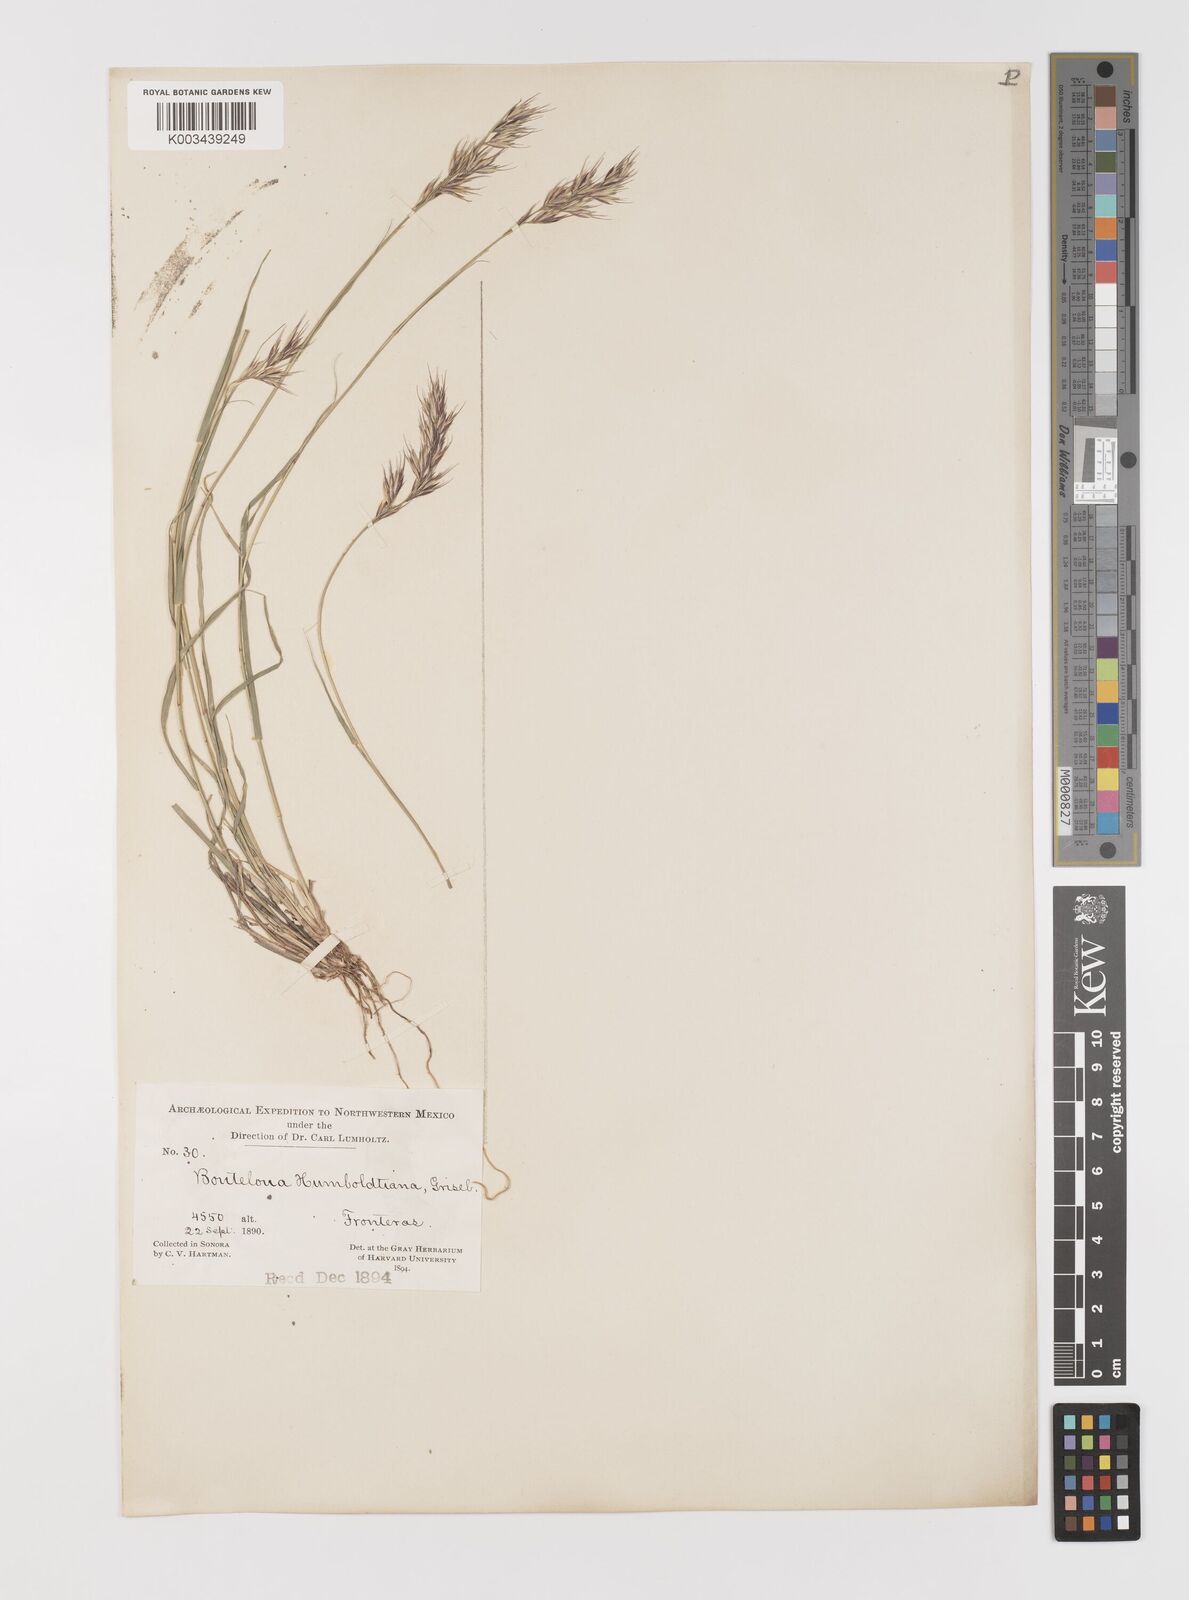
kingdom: Plantae
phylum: Tracheophyta
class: Liliopsida
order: Poales
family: Poaceae
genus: Bouteloua
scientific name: Bouteloua repens
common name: Slender grama
